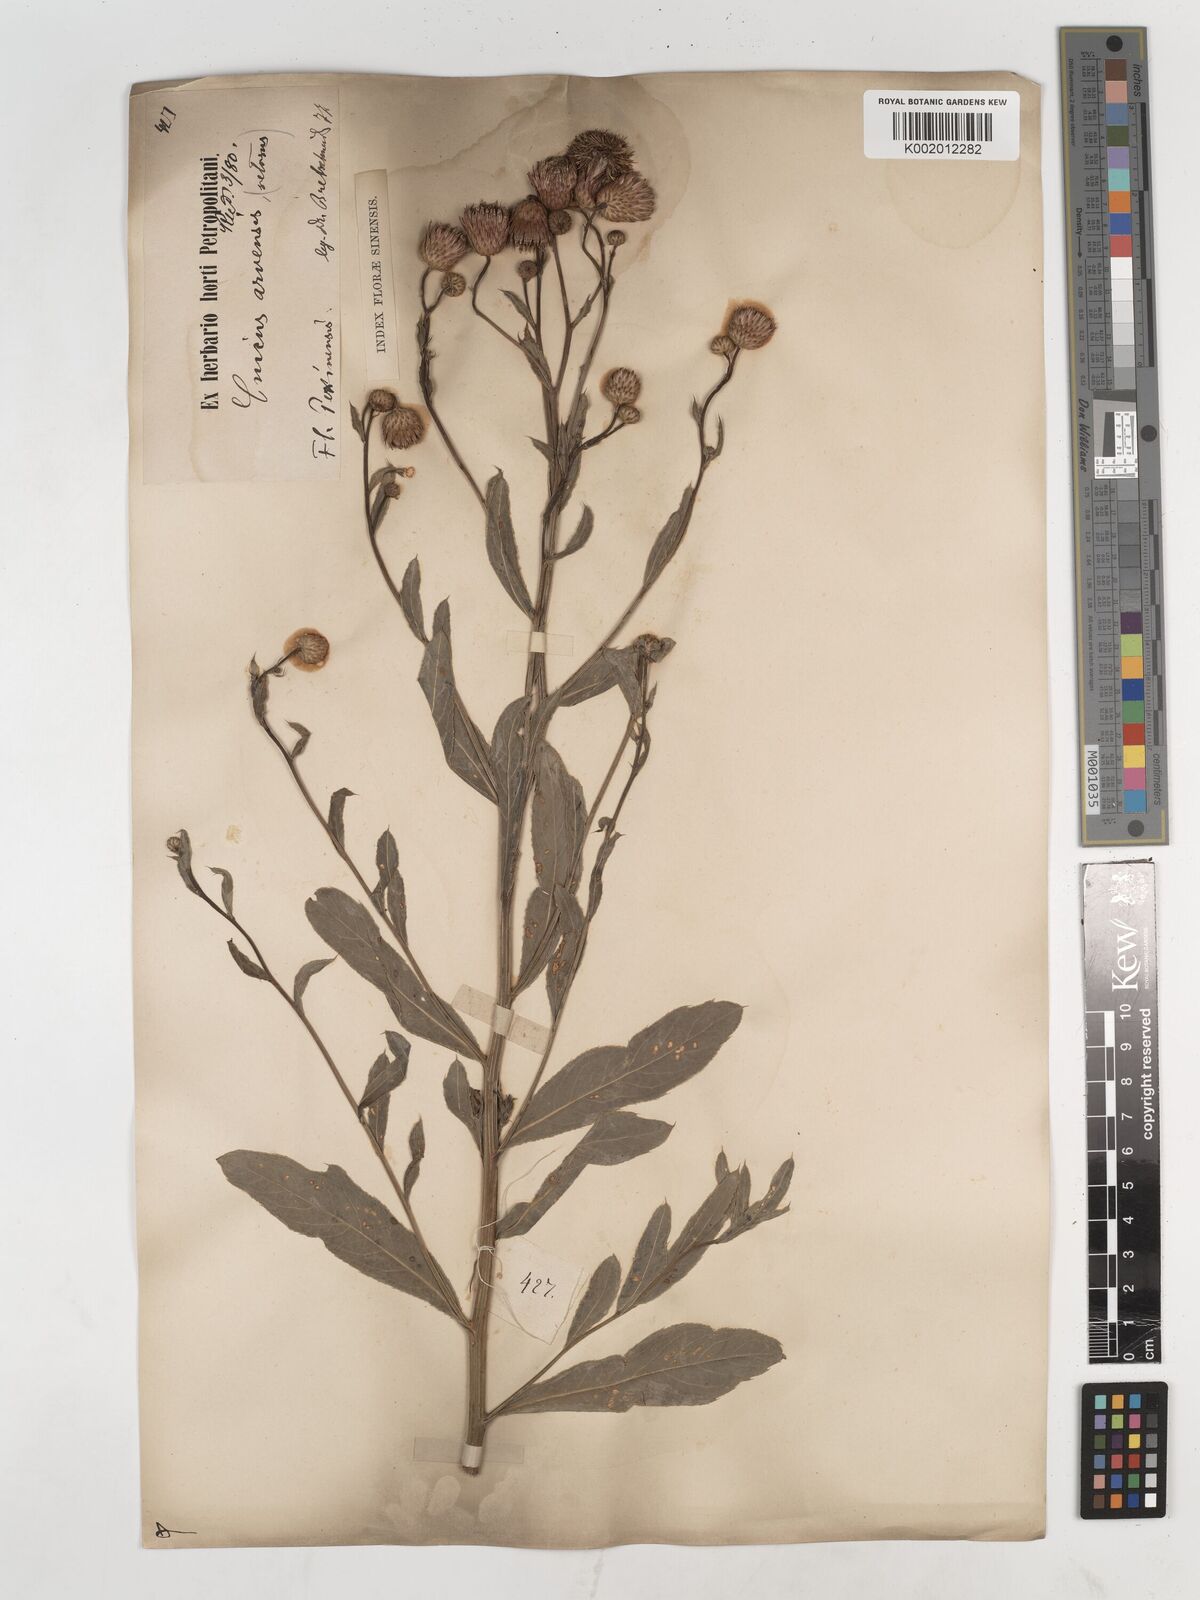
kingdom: Plantae
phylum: Tracheophyta
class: Magnoliopsida
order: Asterales
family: Asteraceae
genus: Cirsium
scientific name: Cirsium arvense
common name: Creeping thistle
